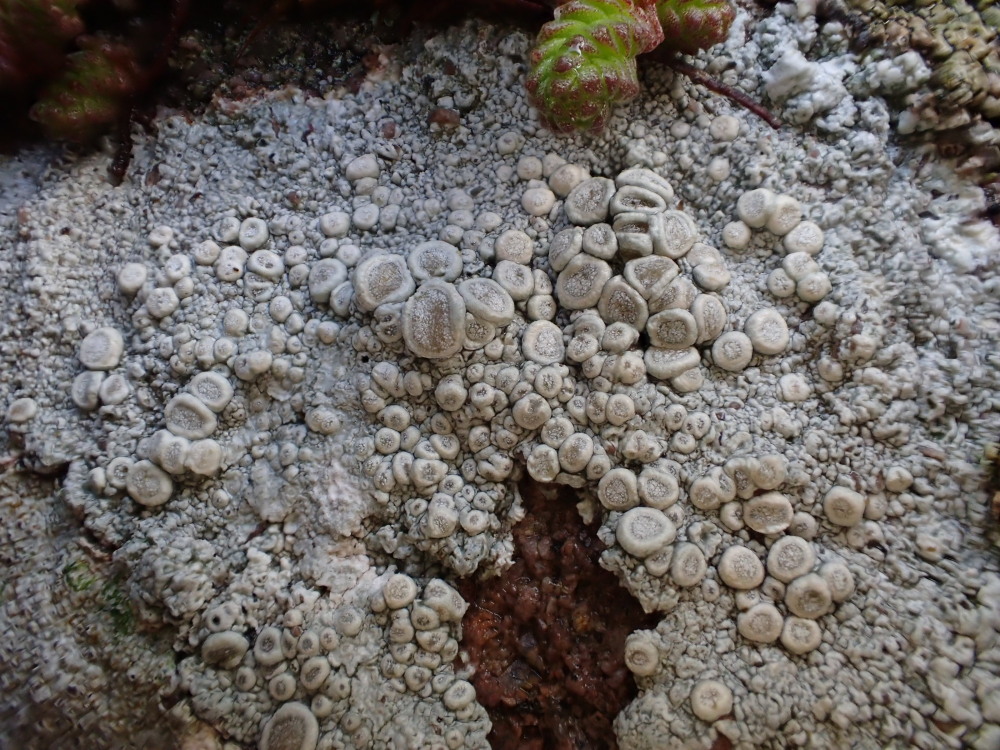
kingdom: Fungi
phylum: Ascomycota
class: Lecanoromycetes
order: Pertusariales
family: Ochrolechiaceae
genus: Ochrolechia
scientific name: Ochrolechia parella
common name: almindelig blegskivelav
